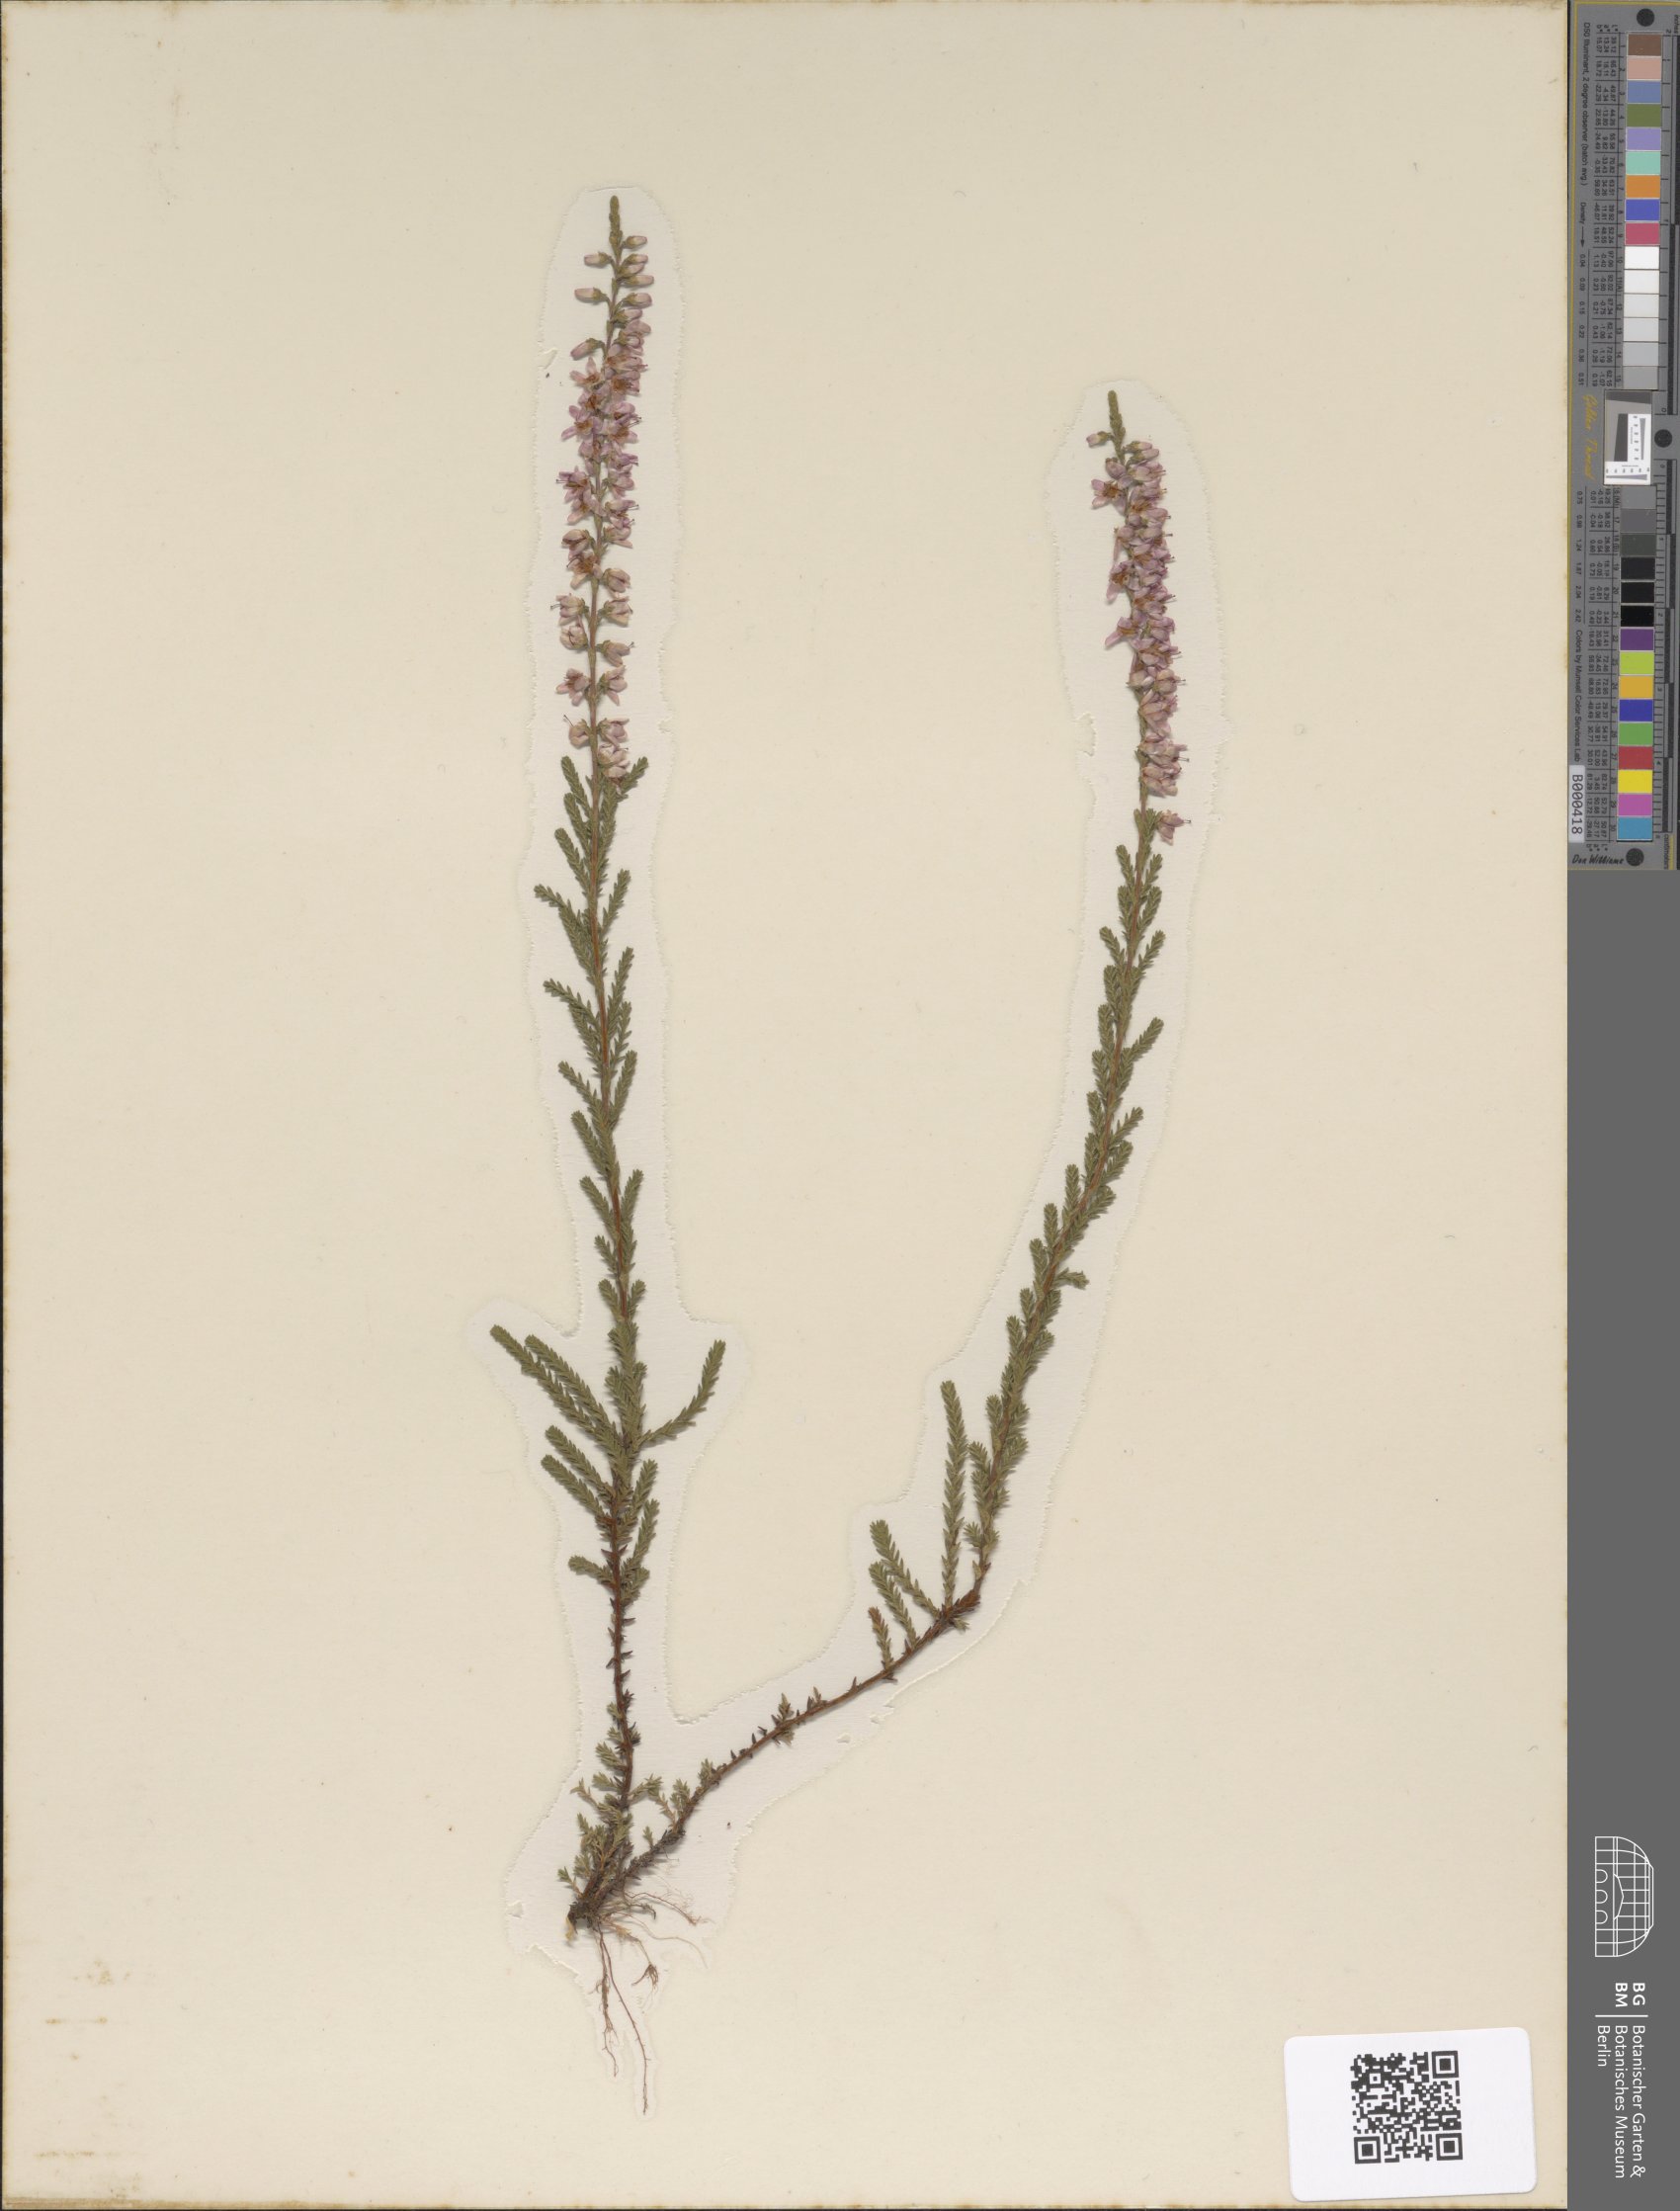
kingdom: Plantae
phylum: Tracheophyta
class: Magnoliopsida
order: Ericales
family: Ericaceae
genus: Calluna
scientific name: Calluna vulgaris
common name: Heather
